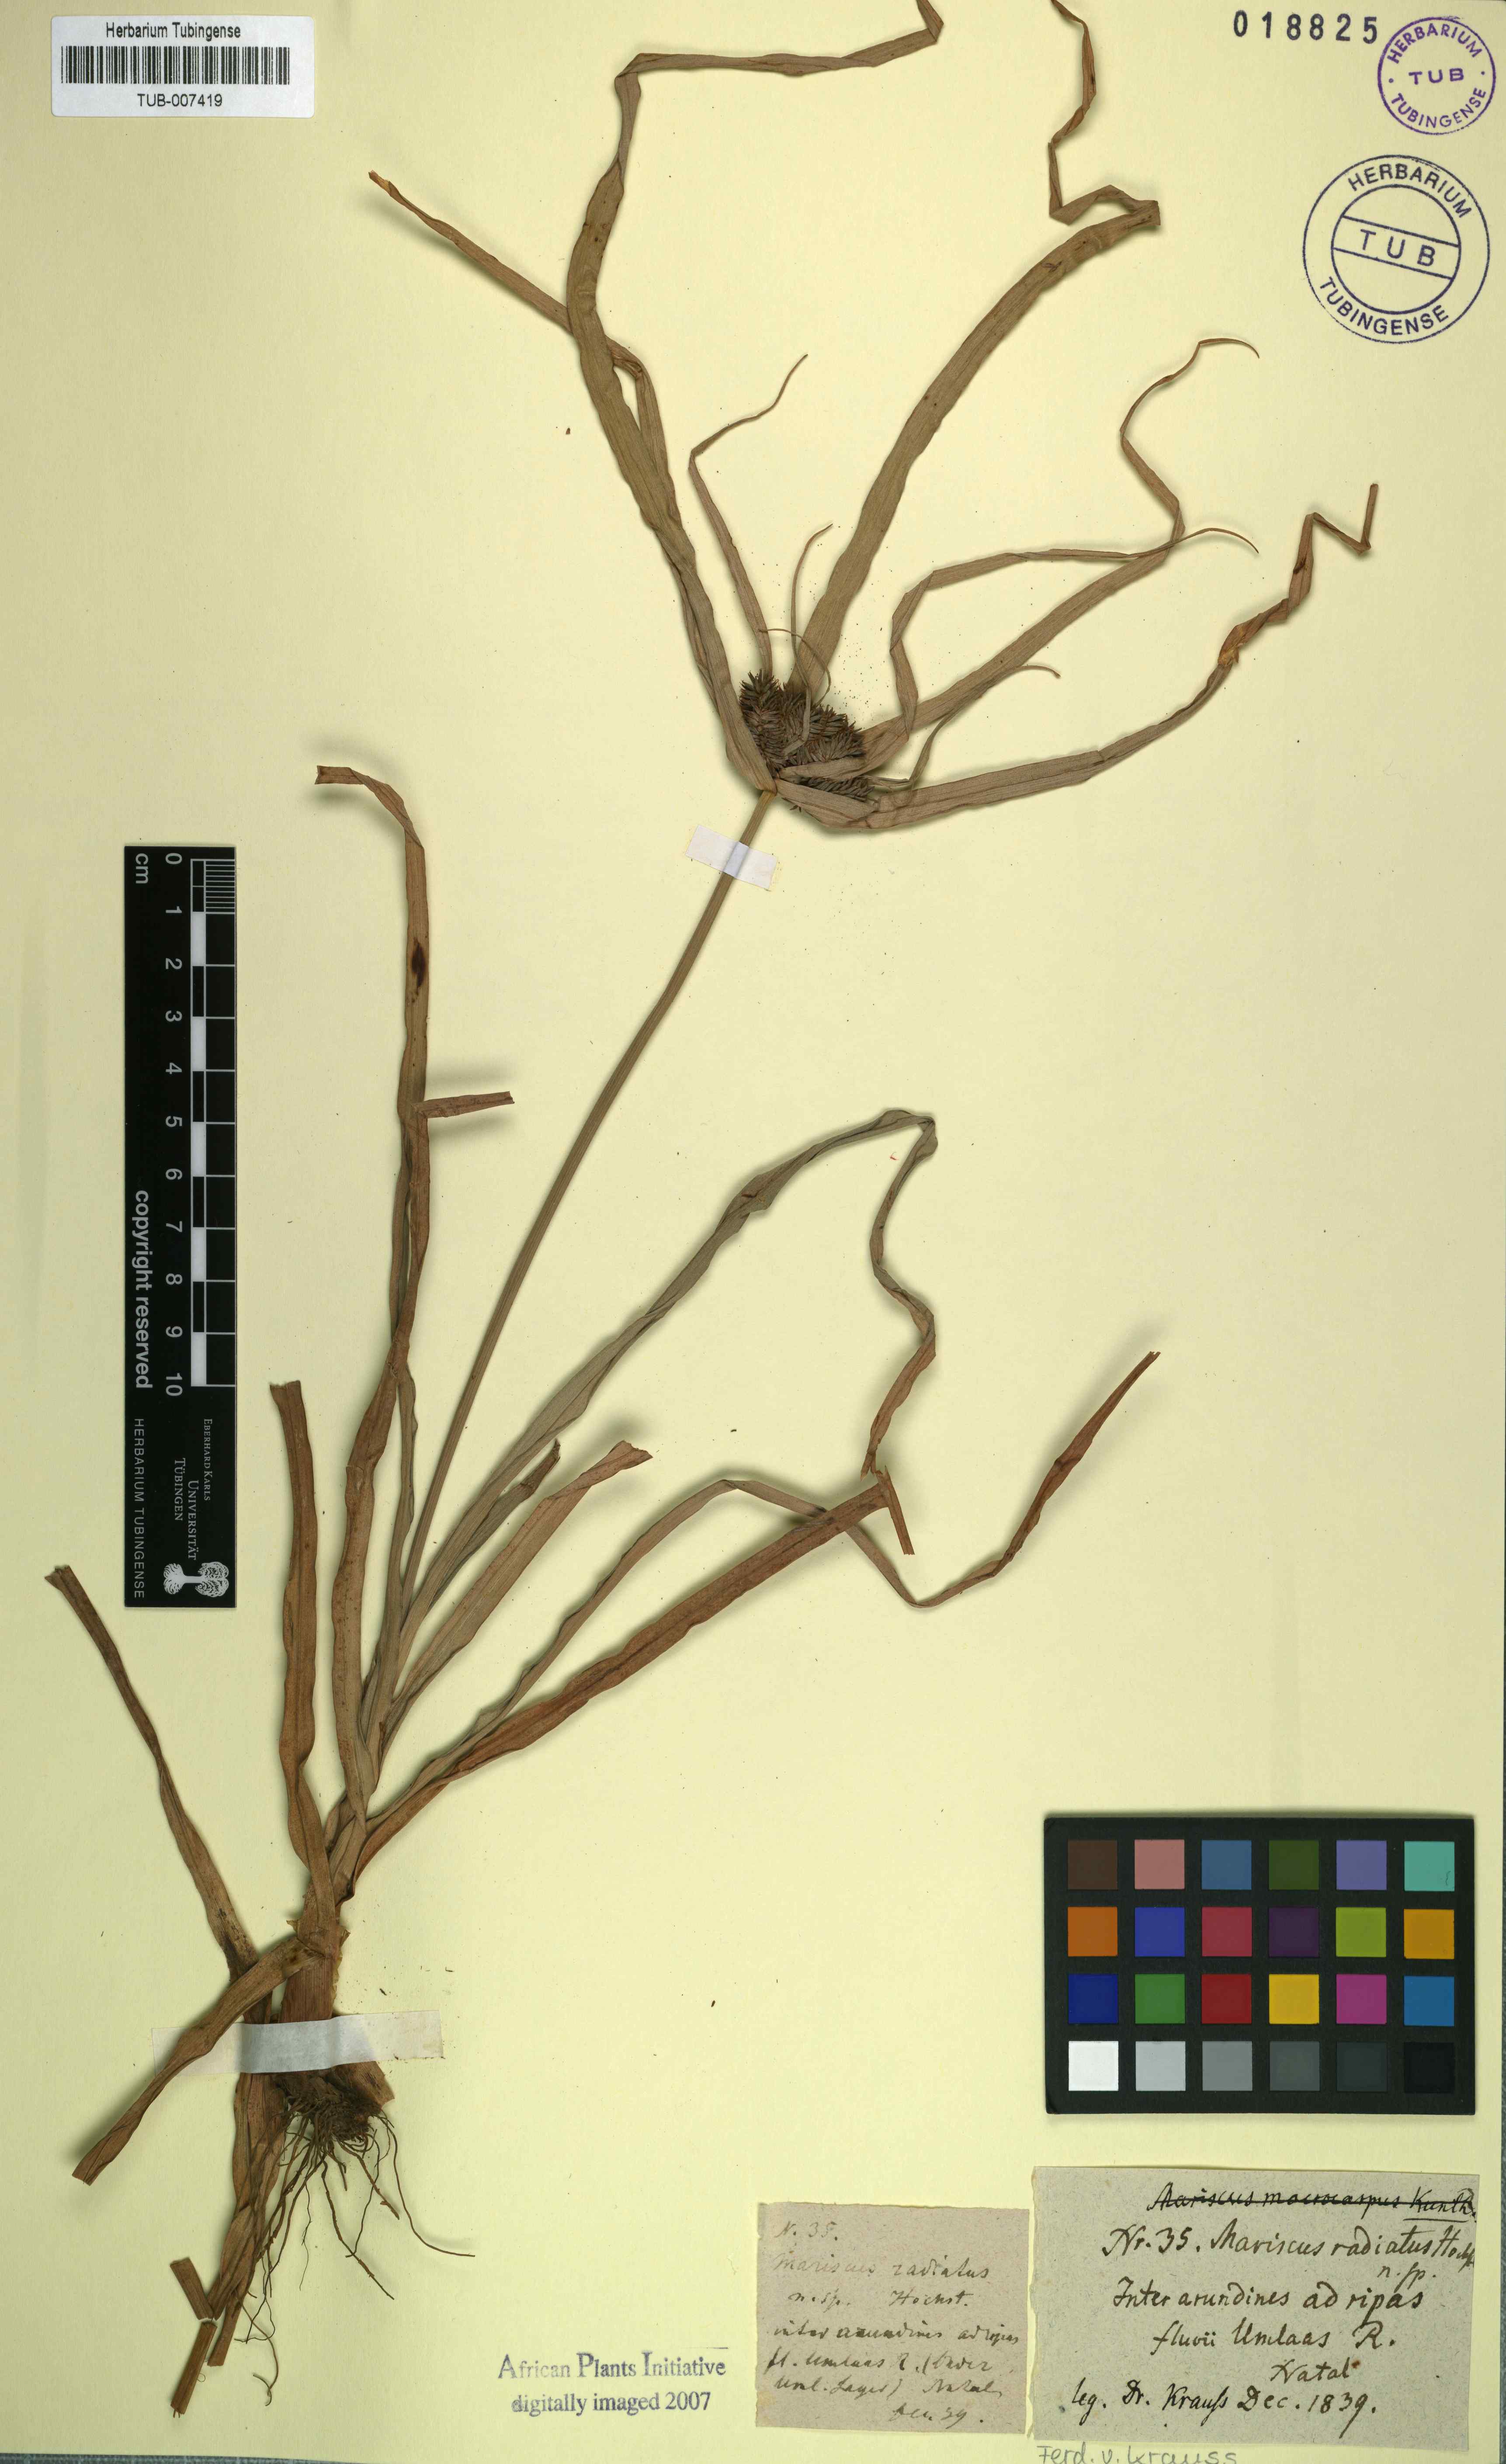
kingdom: Plantae
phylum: Tracheophyta
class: Liliopsida
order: Poales
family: Cyperaceae
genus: Cyperus
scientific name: Cyperus macrocarpus
